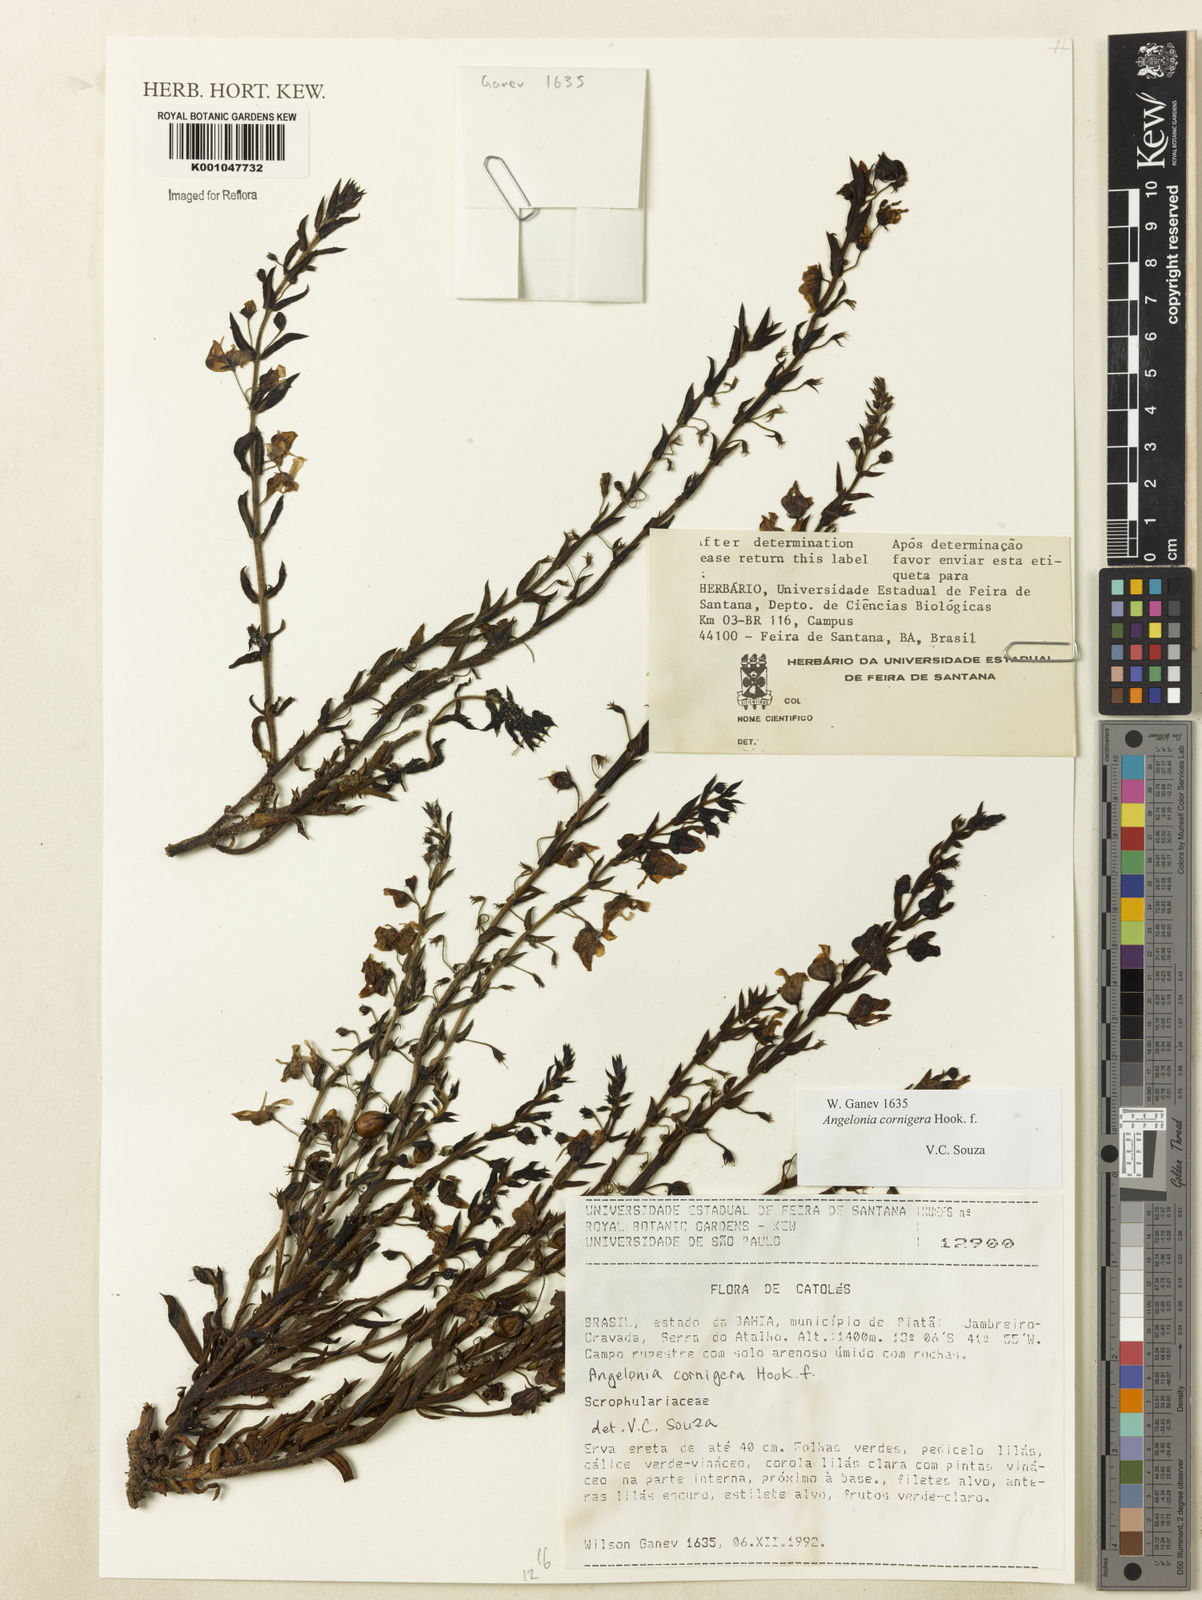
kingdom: Plantae
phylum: Tracheophyta
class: Magnoliopsida
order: Lamiales
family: Plantaginaceae
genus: Angelonia
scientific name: Angelonia cornigera
